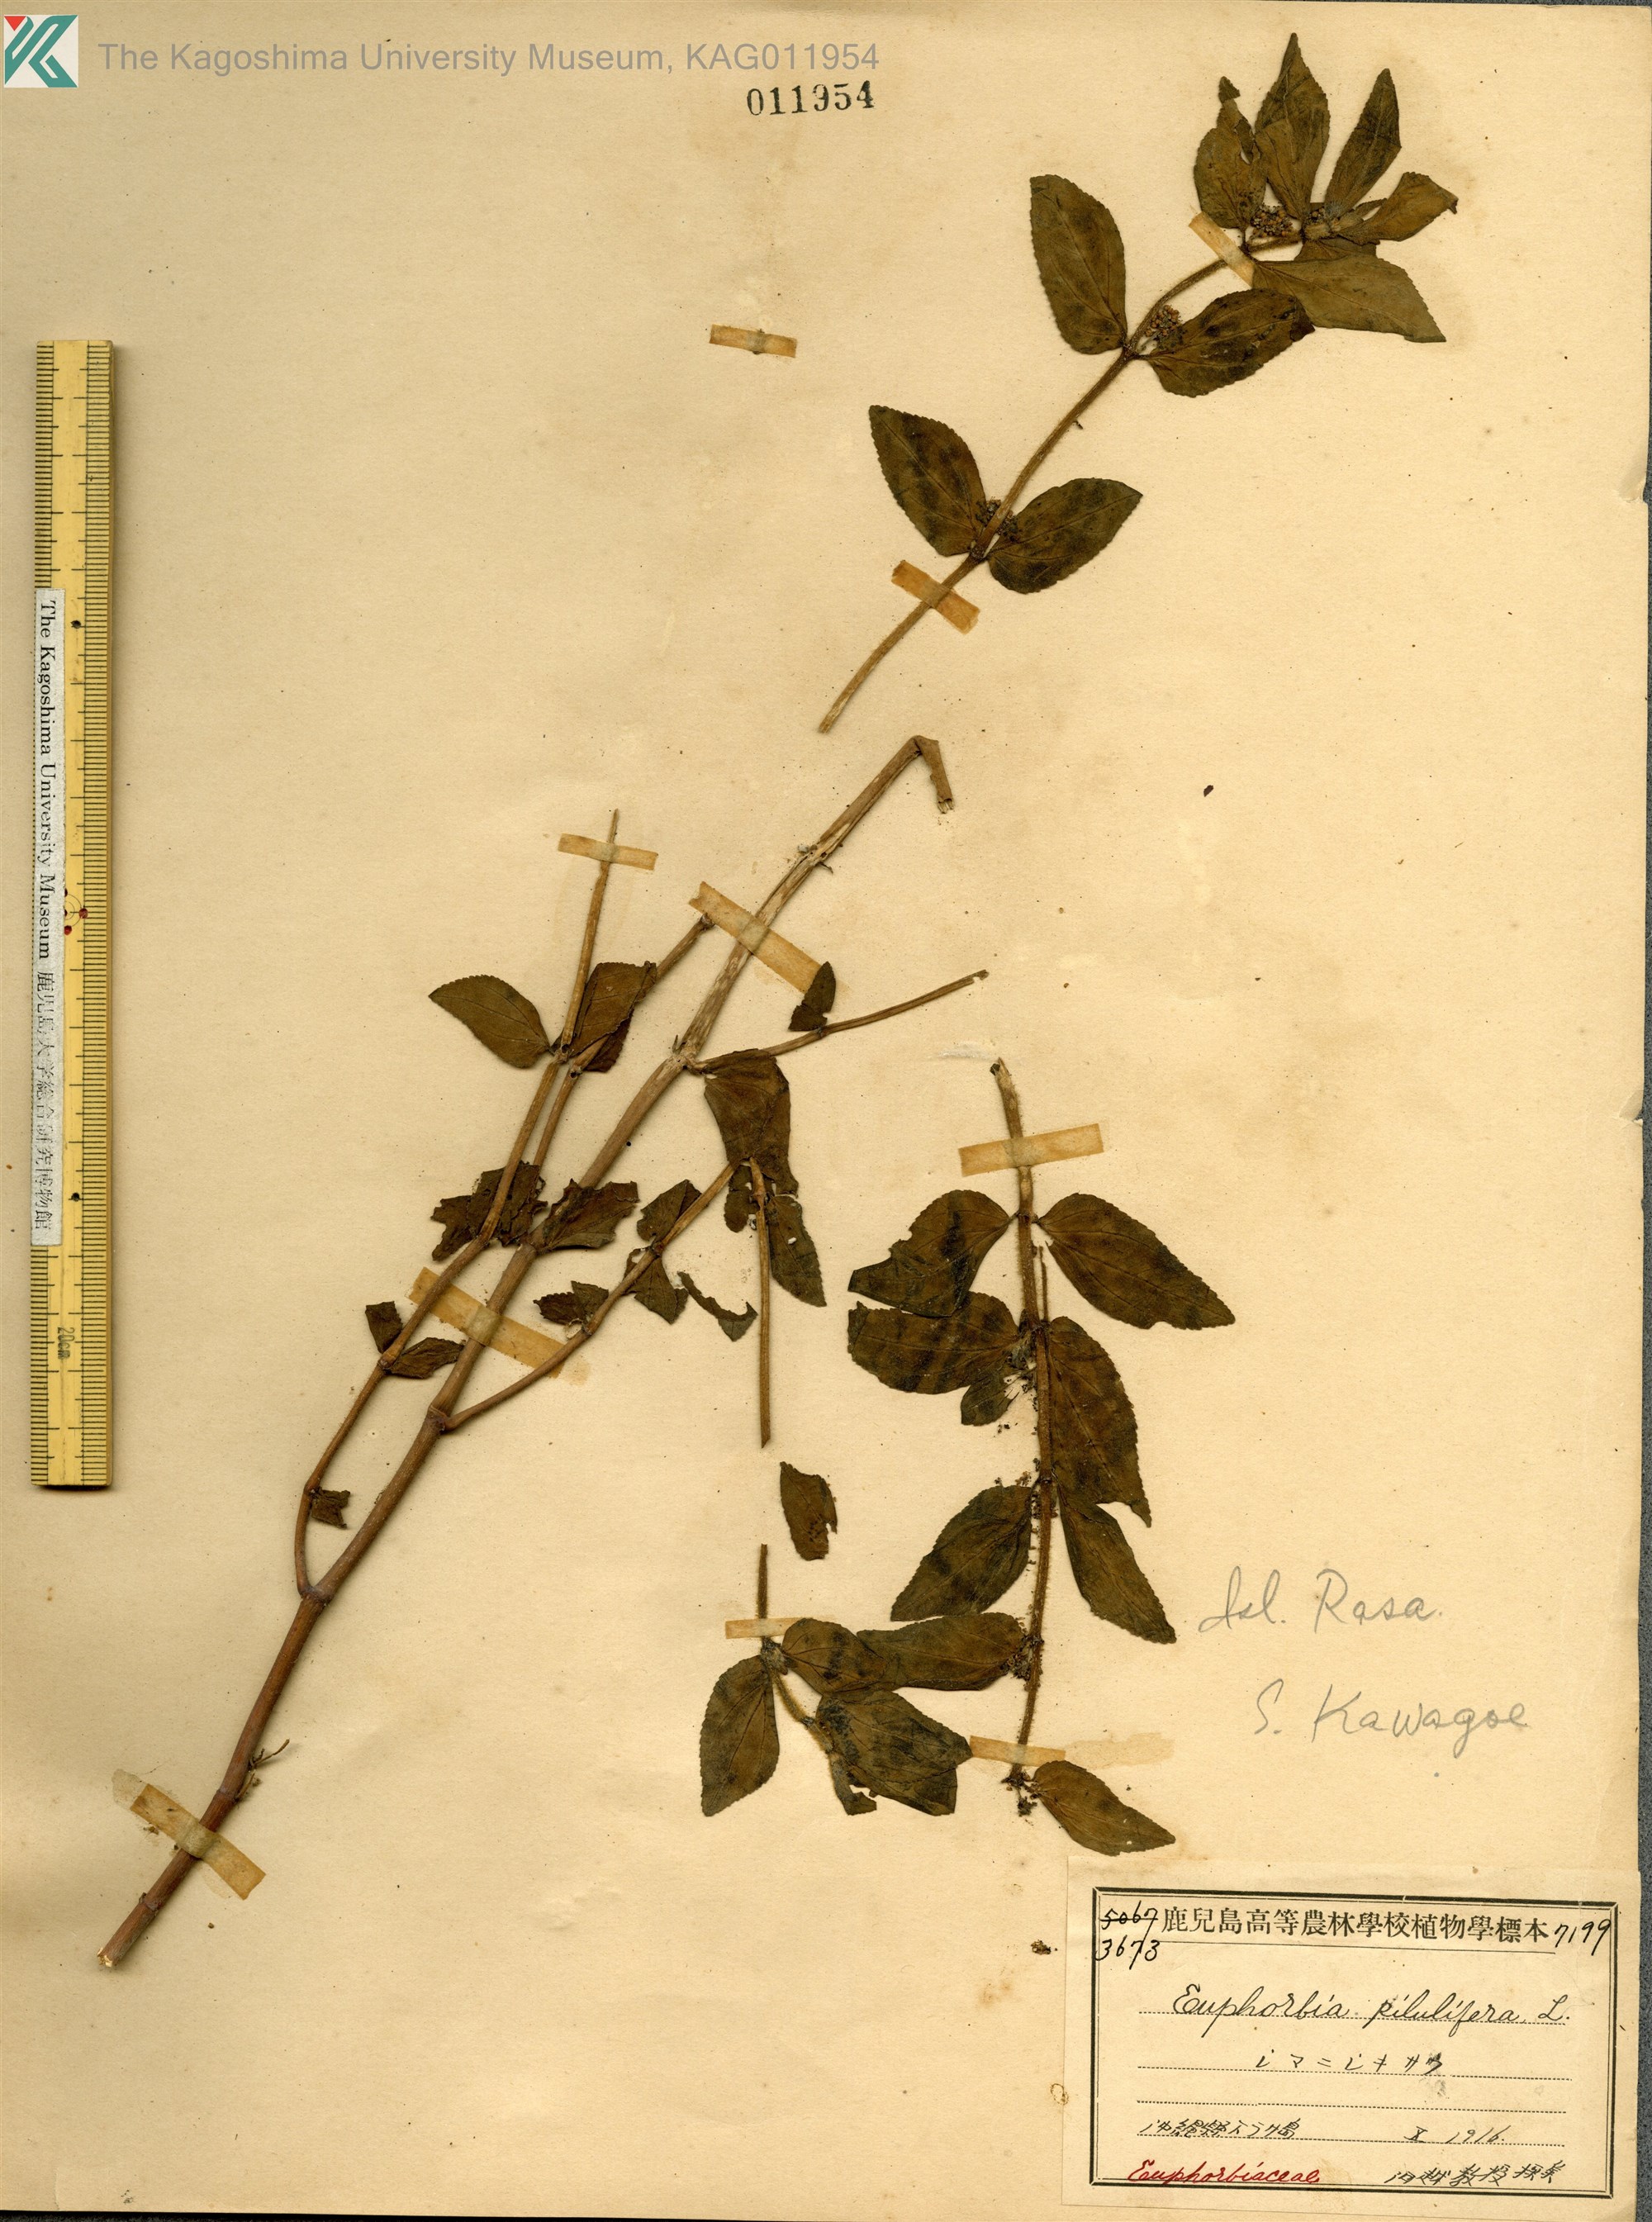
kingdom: Plantae
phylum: Tracheophyta
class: Magnoliopsida
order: Malpighiales
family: Euphorbiaceae
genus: Euphorbia
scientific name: Euphorbia hirta
